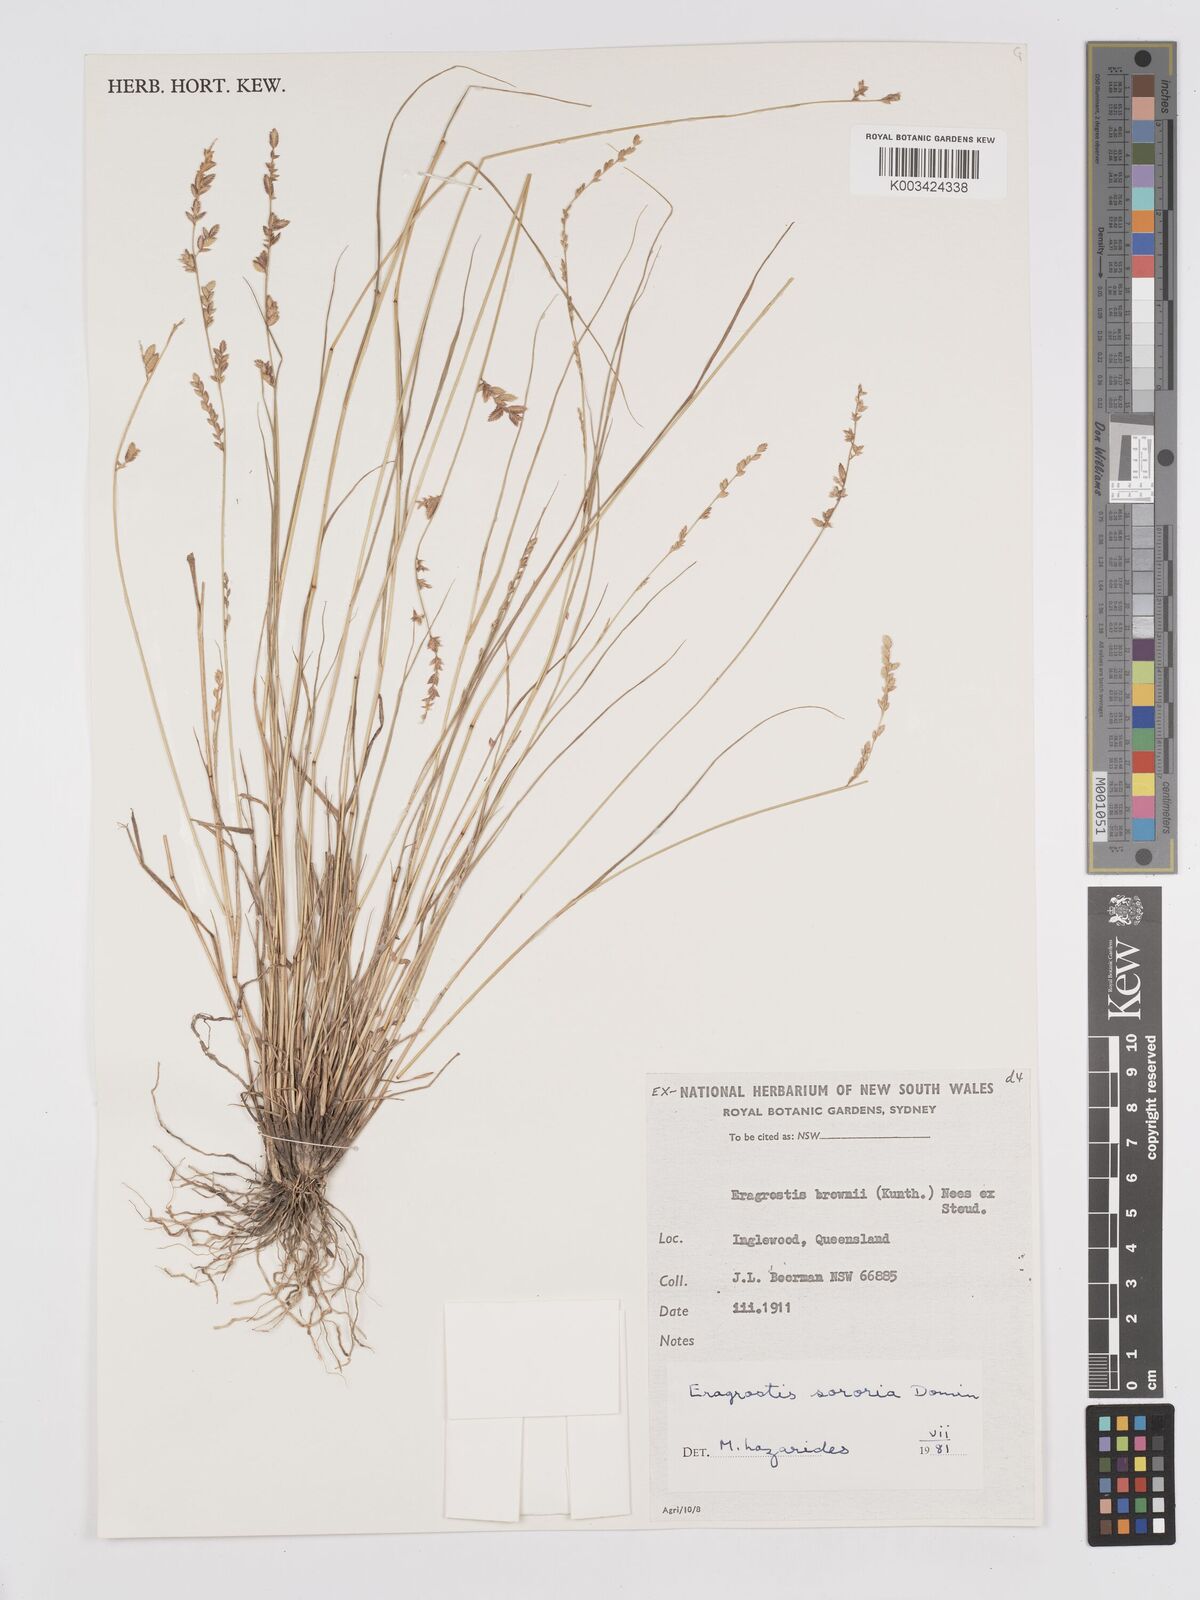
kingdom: Plantae
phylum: Tracheophyta
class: Liliopsida
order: Poales
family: Poaceae
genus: Eragrostis
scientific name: Eragrostis sororia
